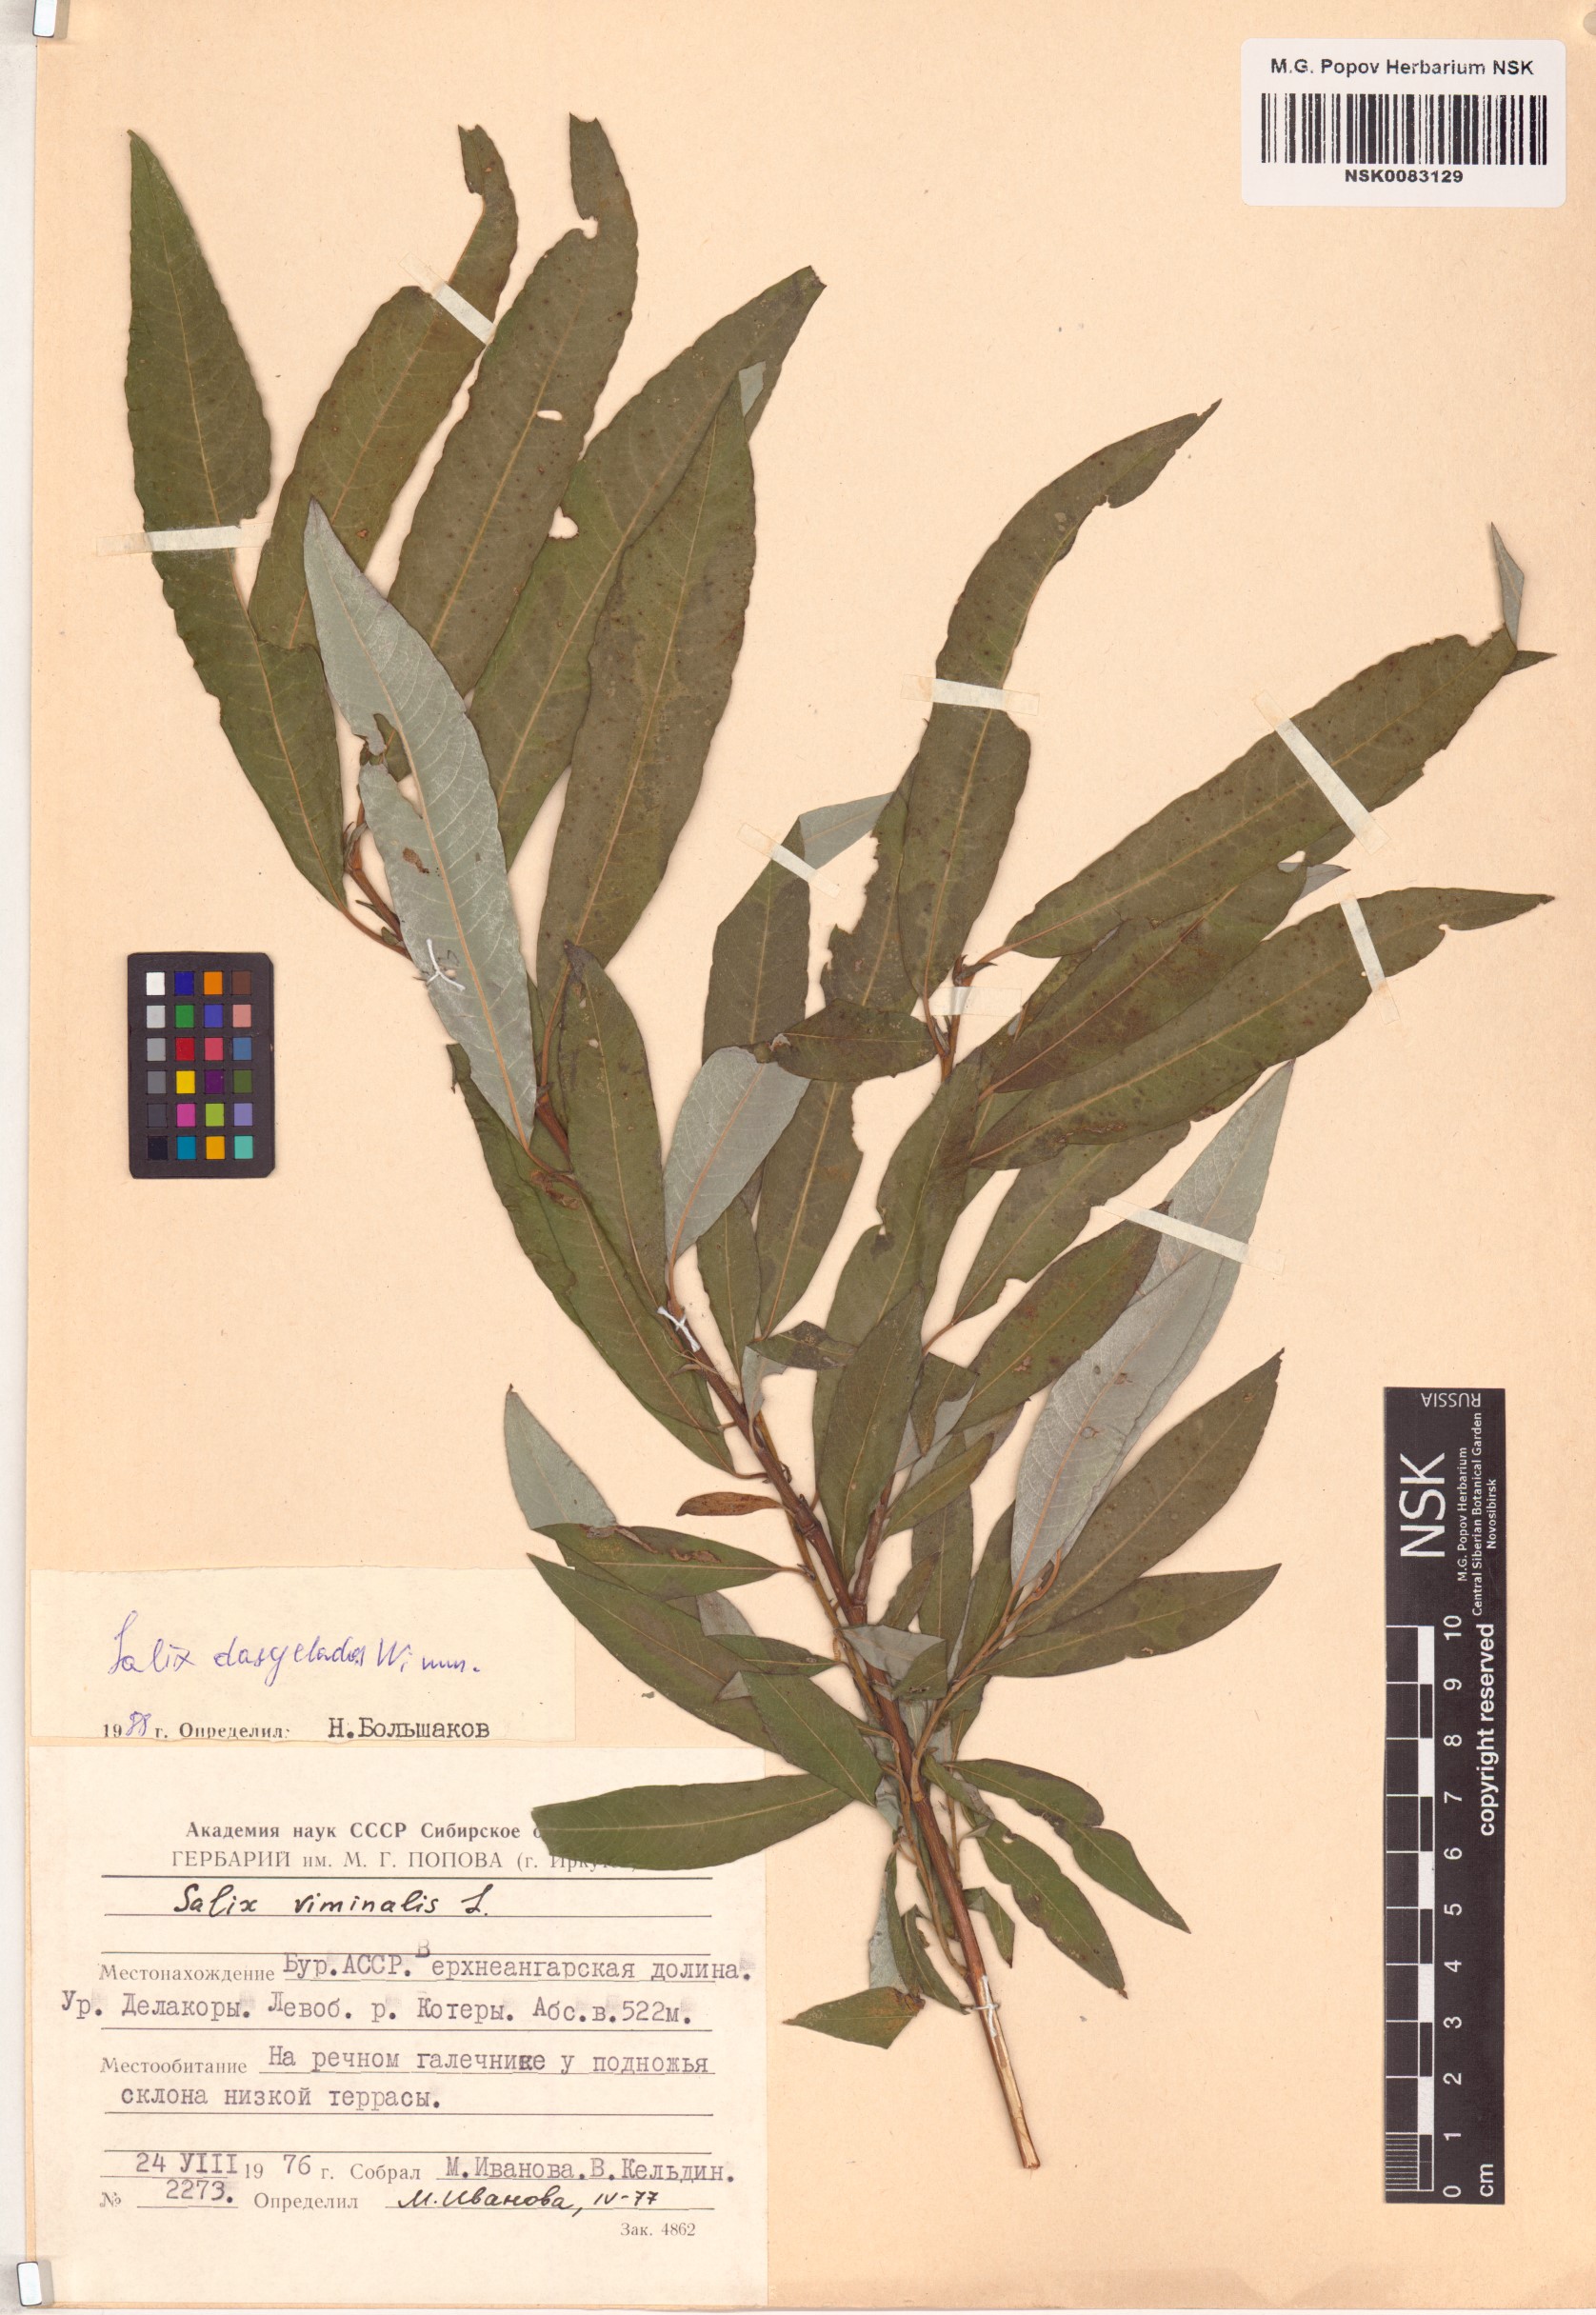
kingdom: Plantae
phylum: Tracheophyta
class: Magnoliopsida
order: Malpighiales
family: Salicaceae
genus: Salix
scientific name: Salix gmelinii
